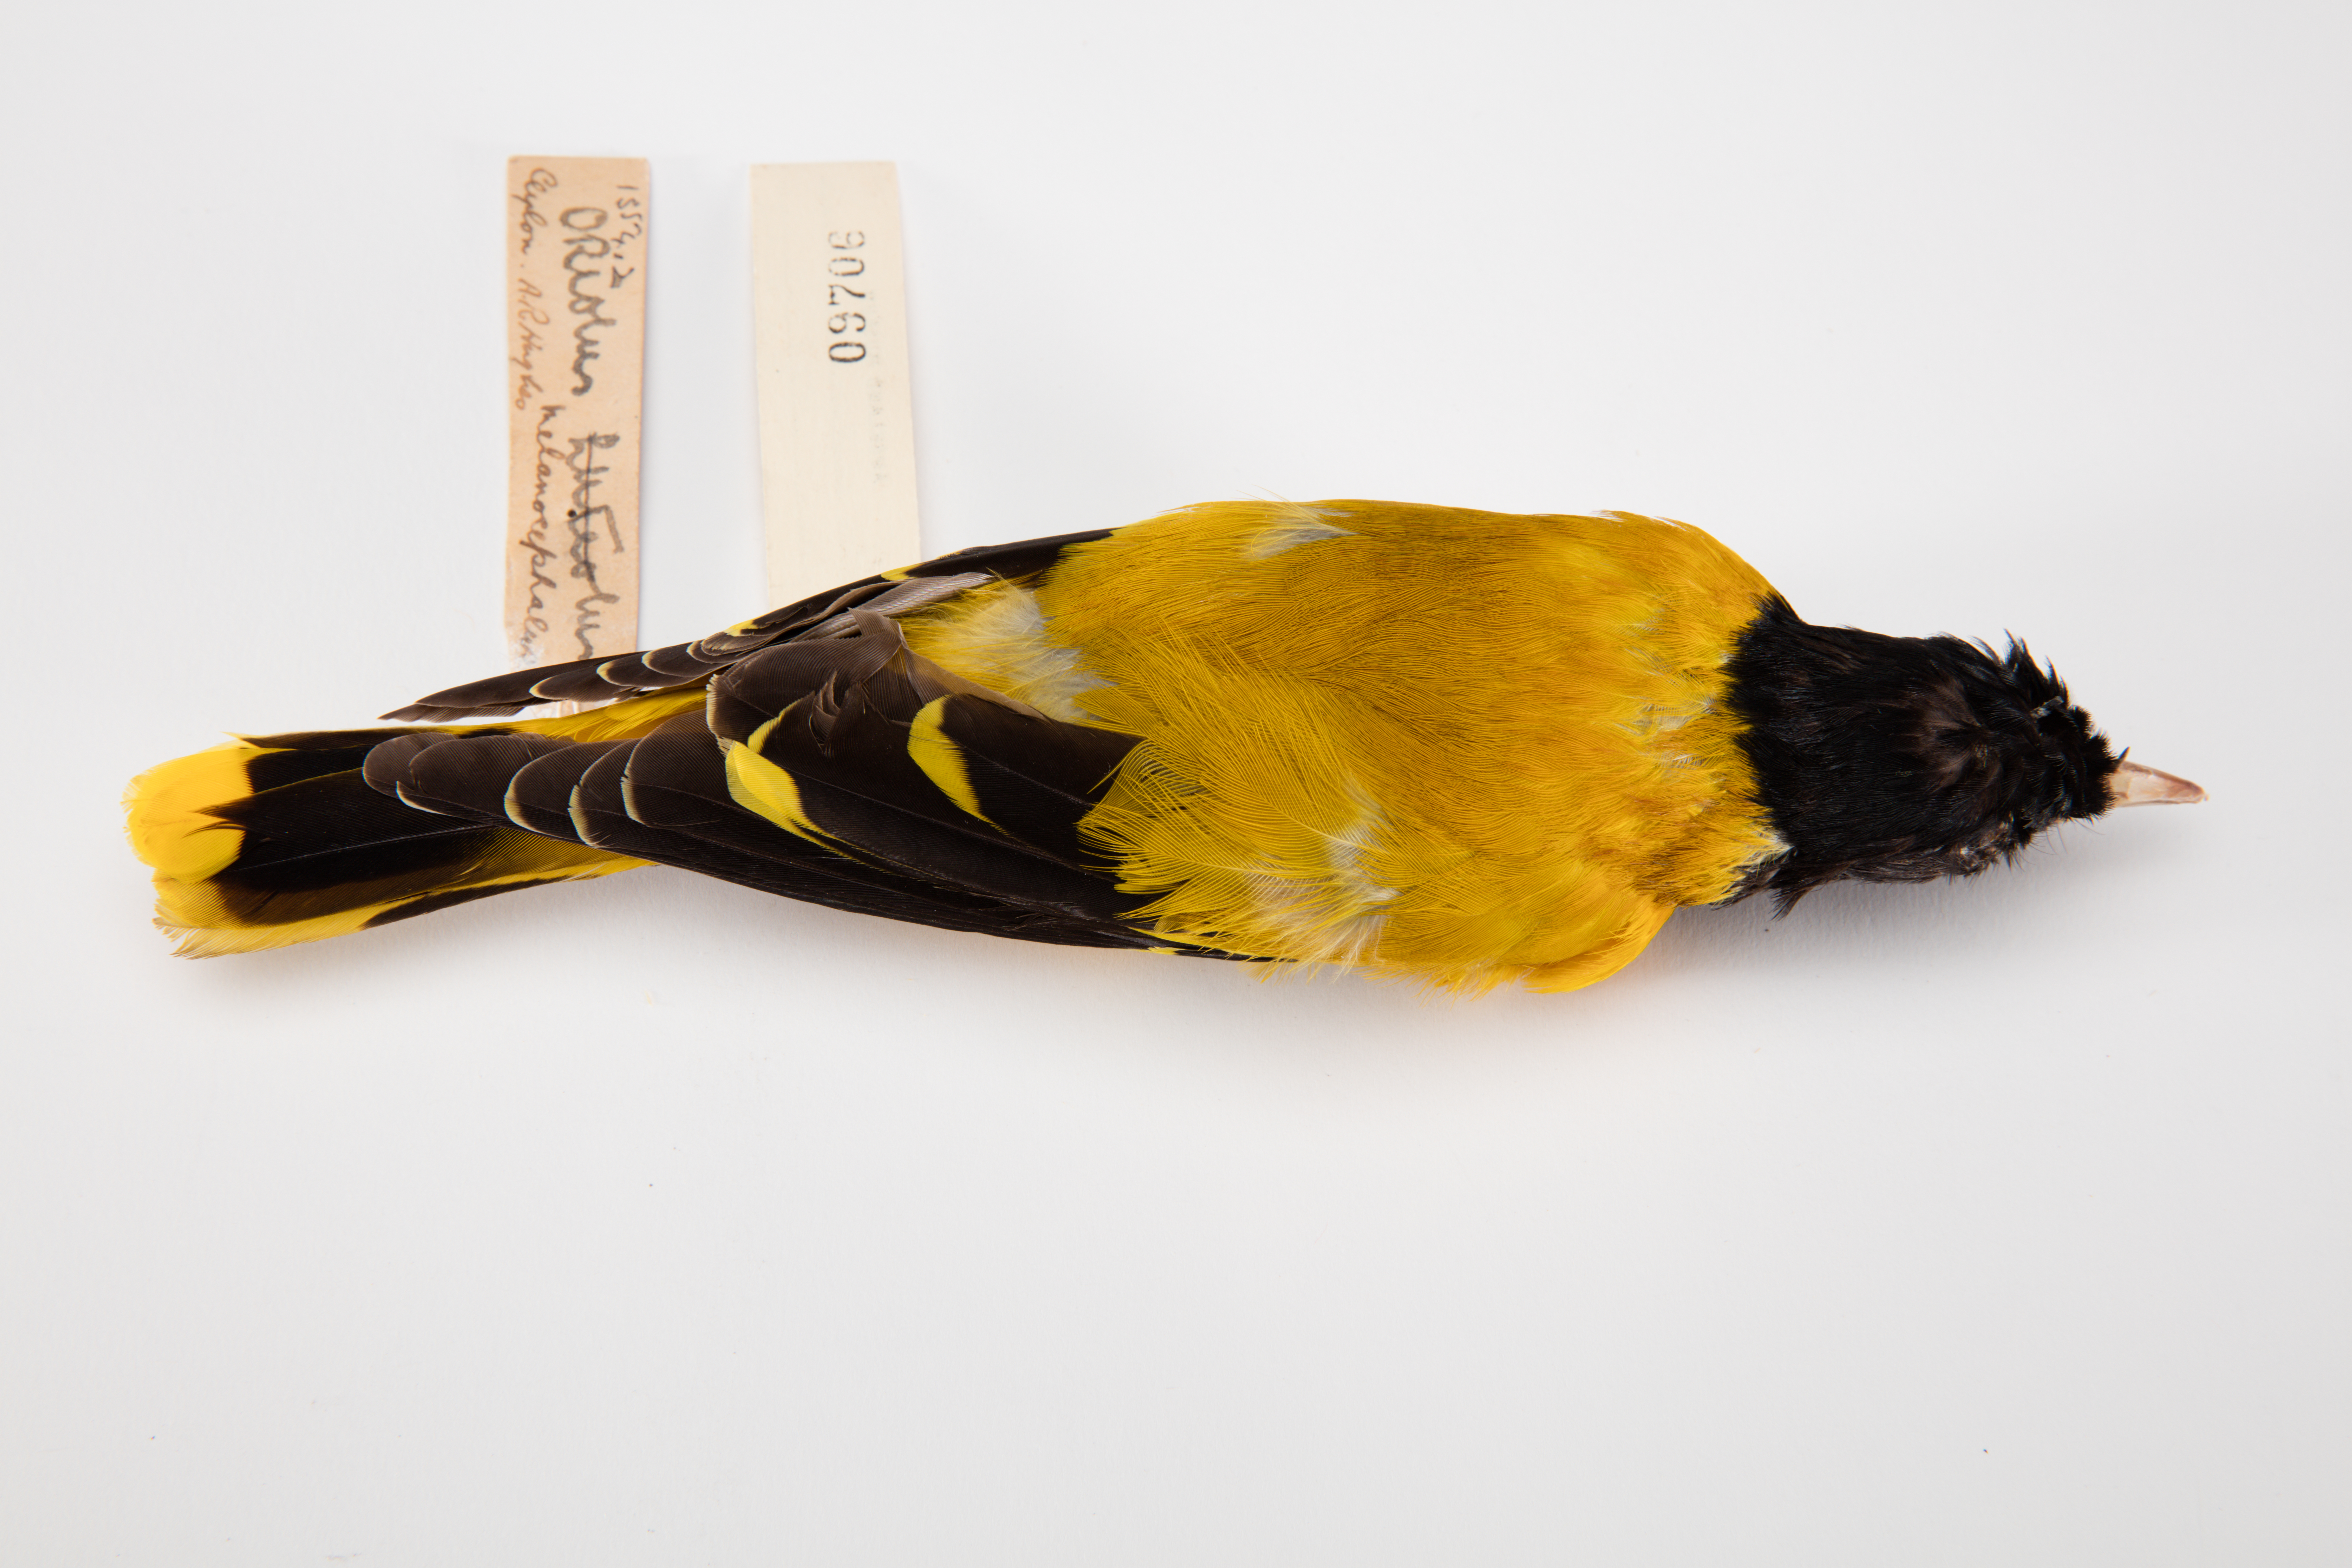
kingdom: Animalia
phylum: Chordata
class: Aves
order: Passeriformes
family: Oriolidae
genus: Oriolus
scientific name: Oriolus xanthornus
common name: Black-hooded oriole
